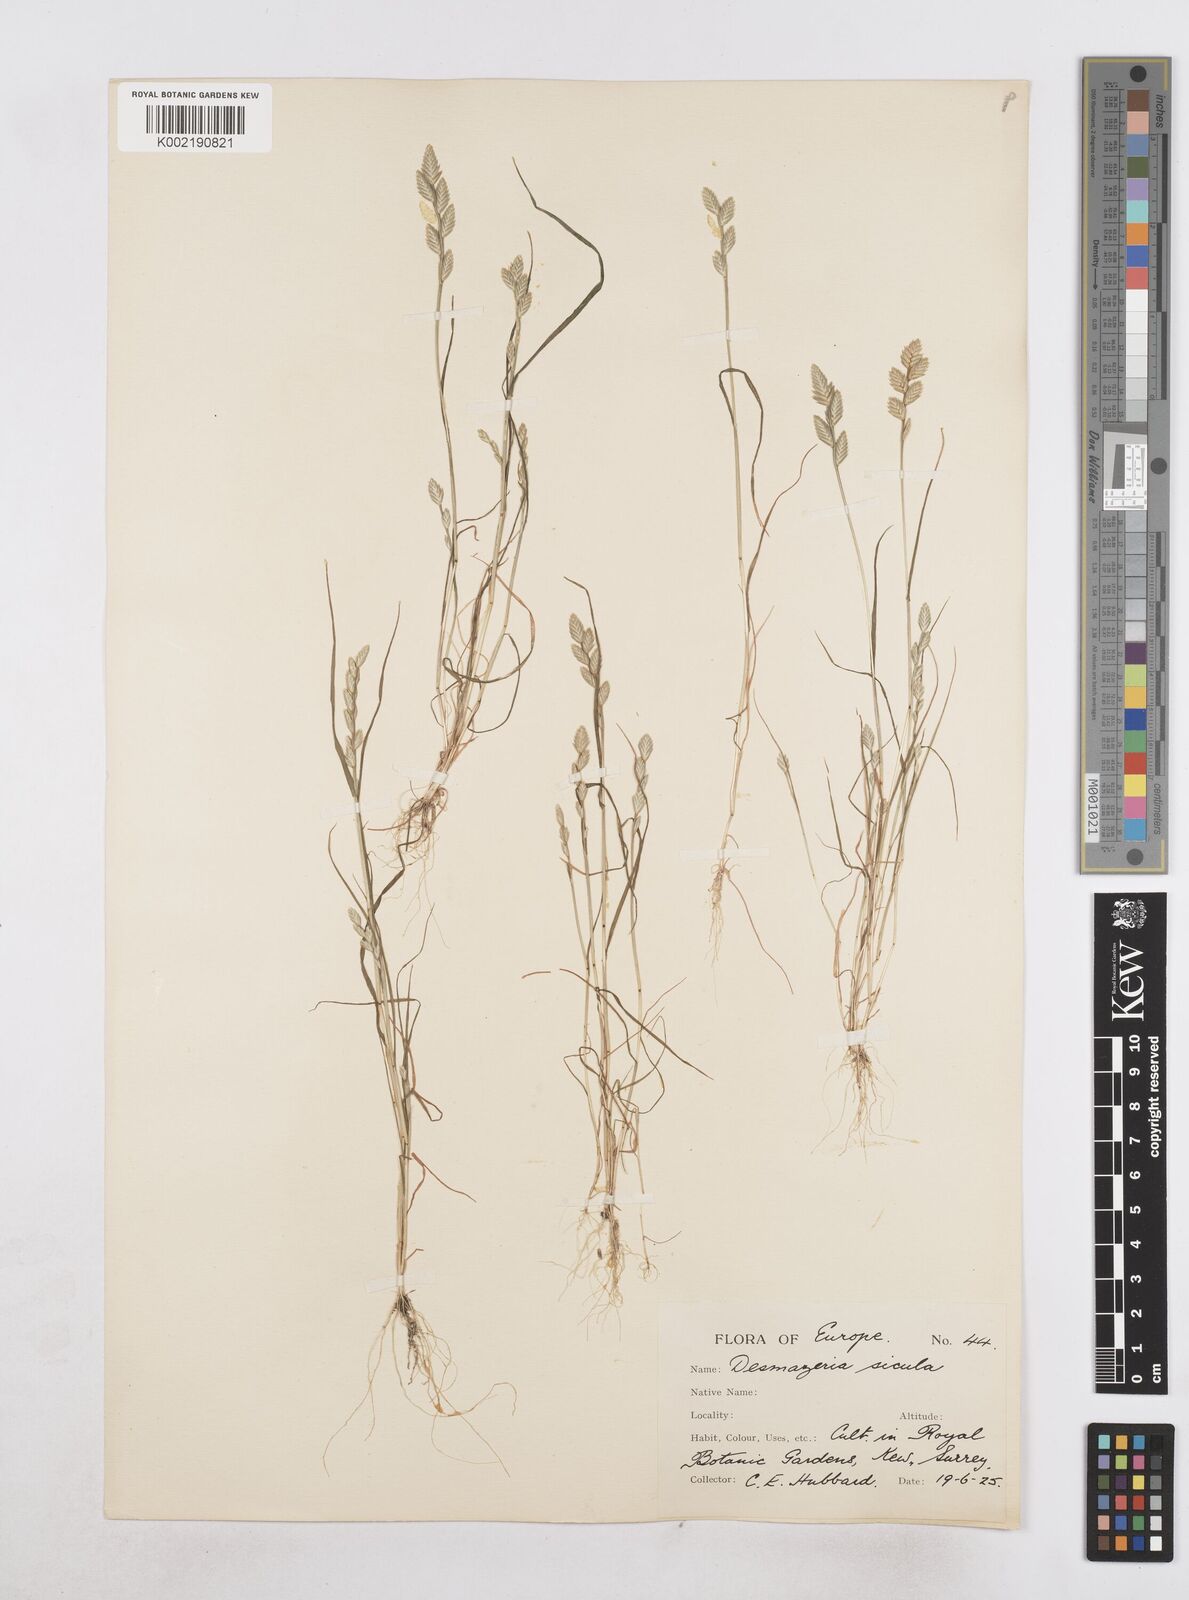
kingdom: Plantae
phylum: Tracheophyta
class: Liliopsida
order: Poales
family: Poaceae
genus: Desmazeria
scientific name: Desmazeria sicula
